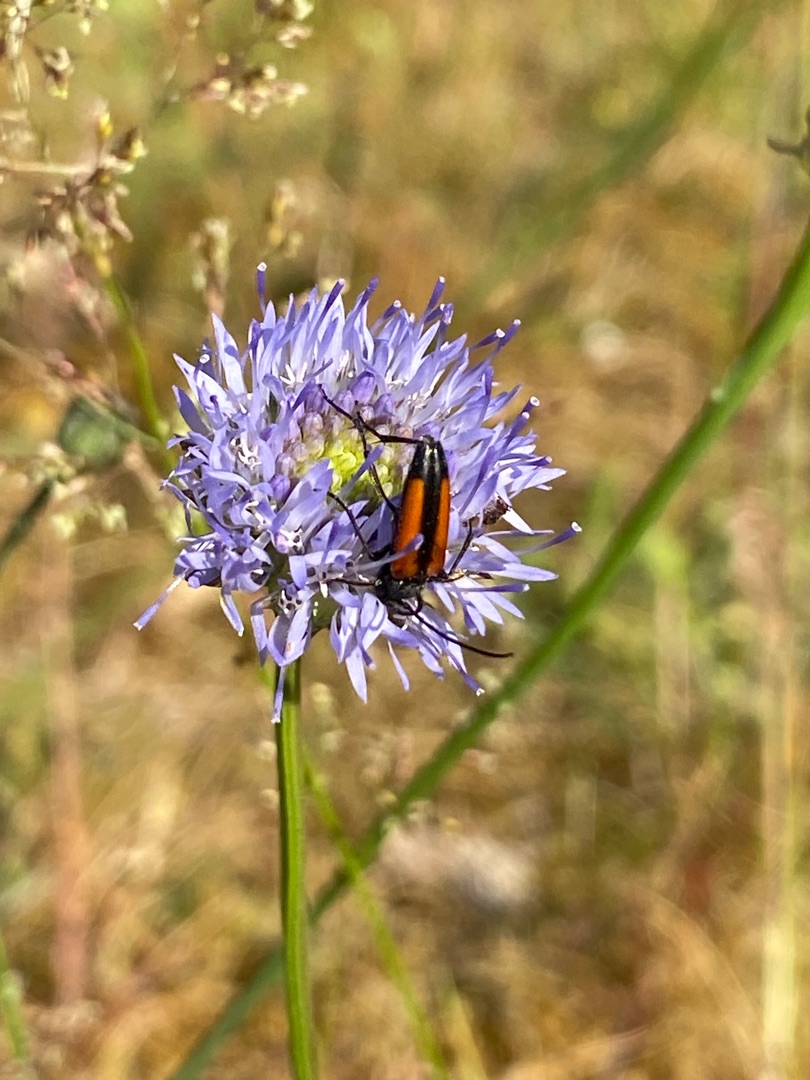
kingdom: Plantae
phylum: Tracheophyta
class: Magnoliopsida
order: Asterales
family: Campanulaceae
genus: Jasione
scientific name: Jasione montana
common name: Blåmunke
